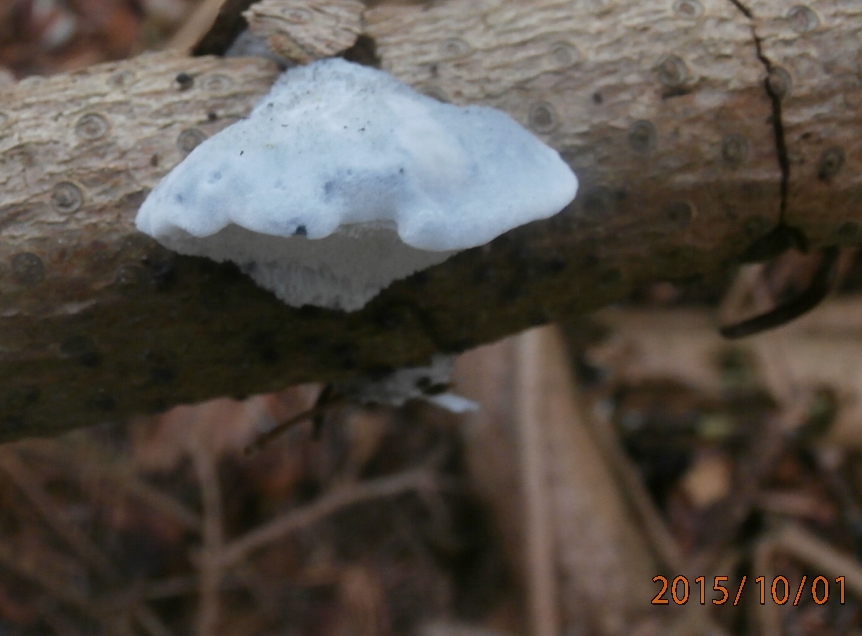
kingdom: Fungi
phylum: Basidiomycota
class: Agaricomycetes
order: Polyporales
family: Polyporaceae
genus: Cyanosporus
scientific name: Cyanosporus caesius
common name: blålig kødporesvamp
